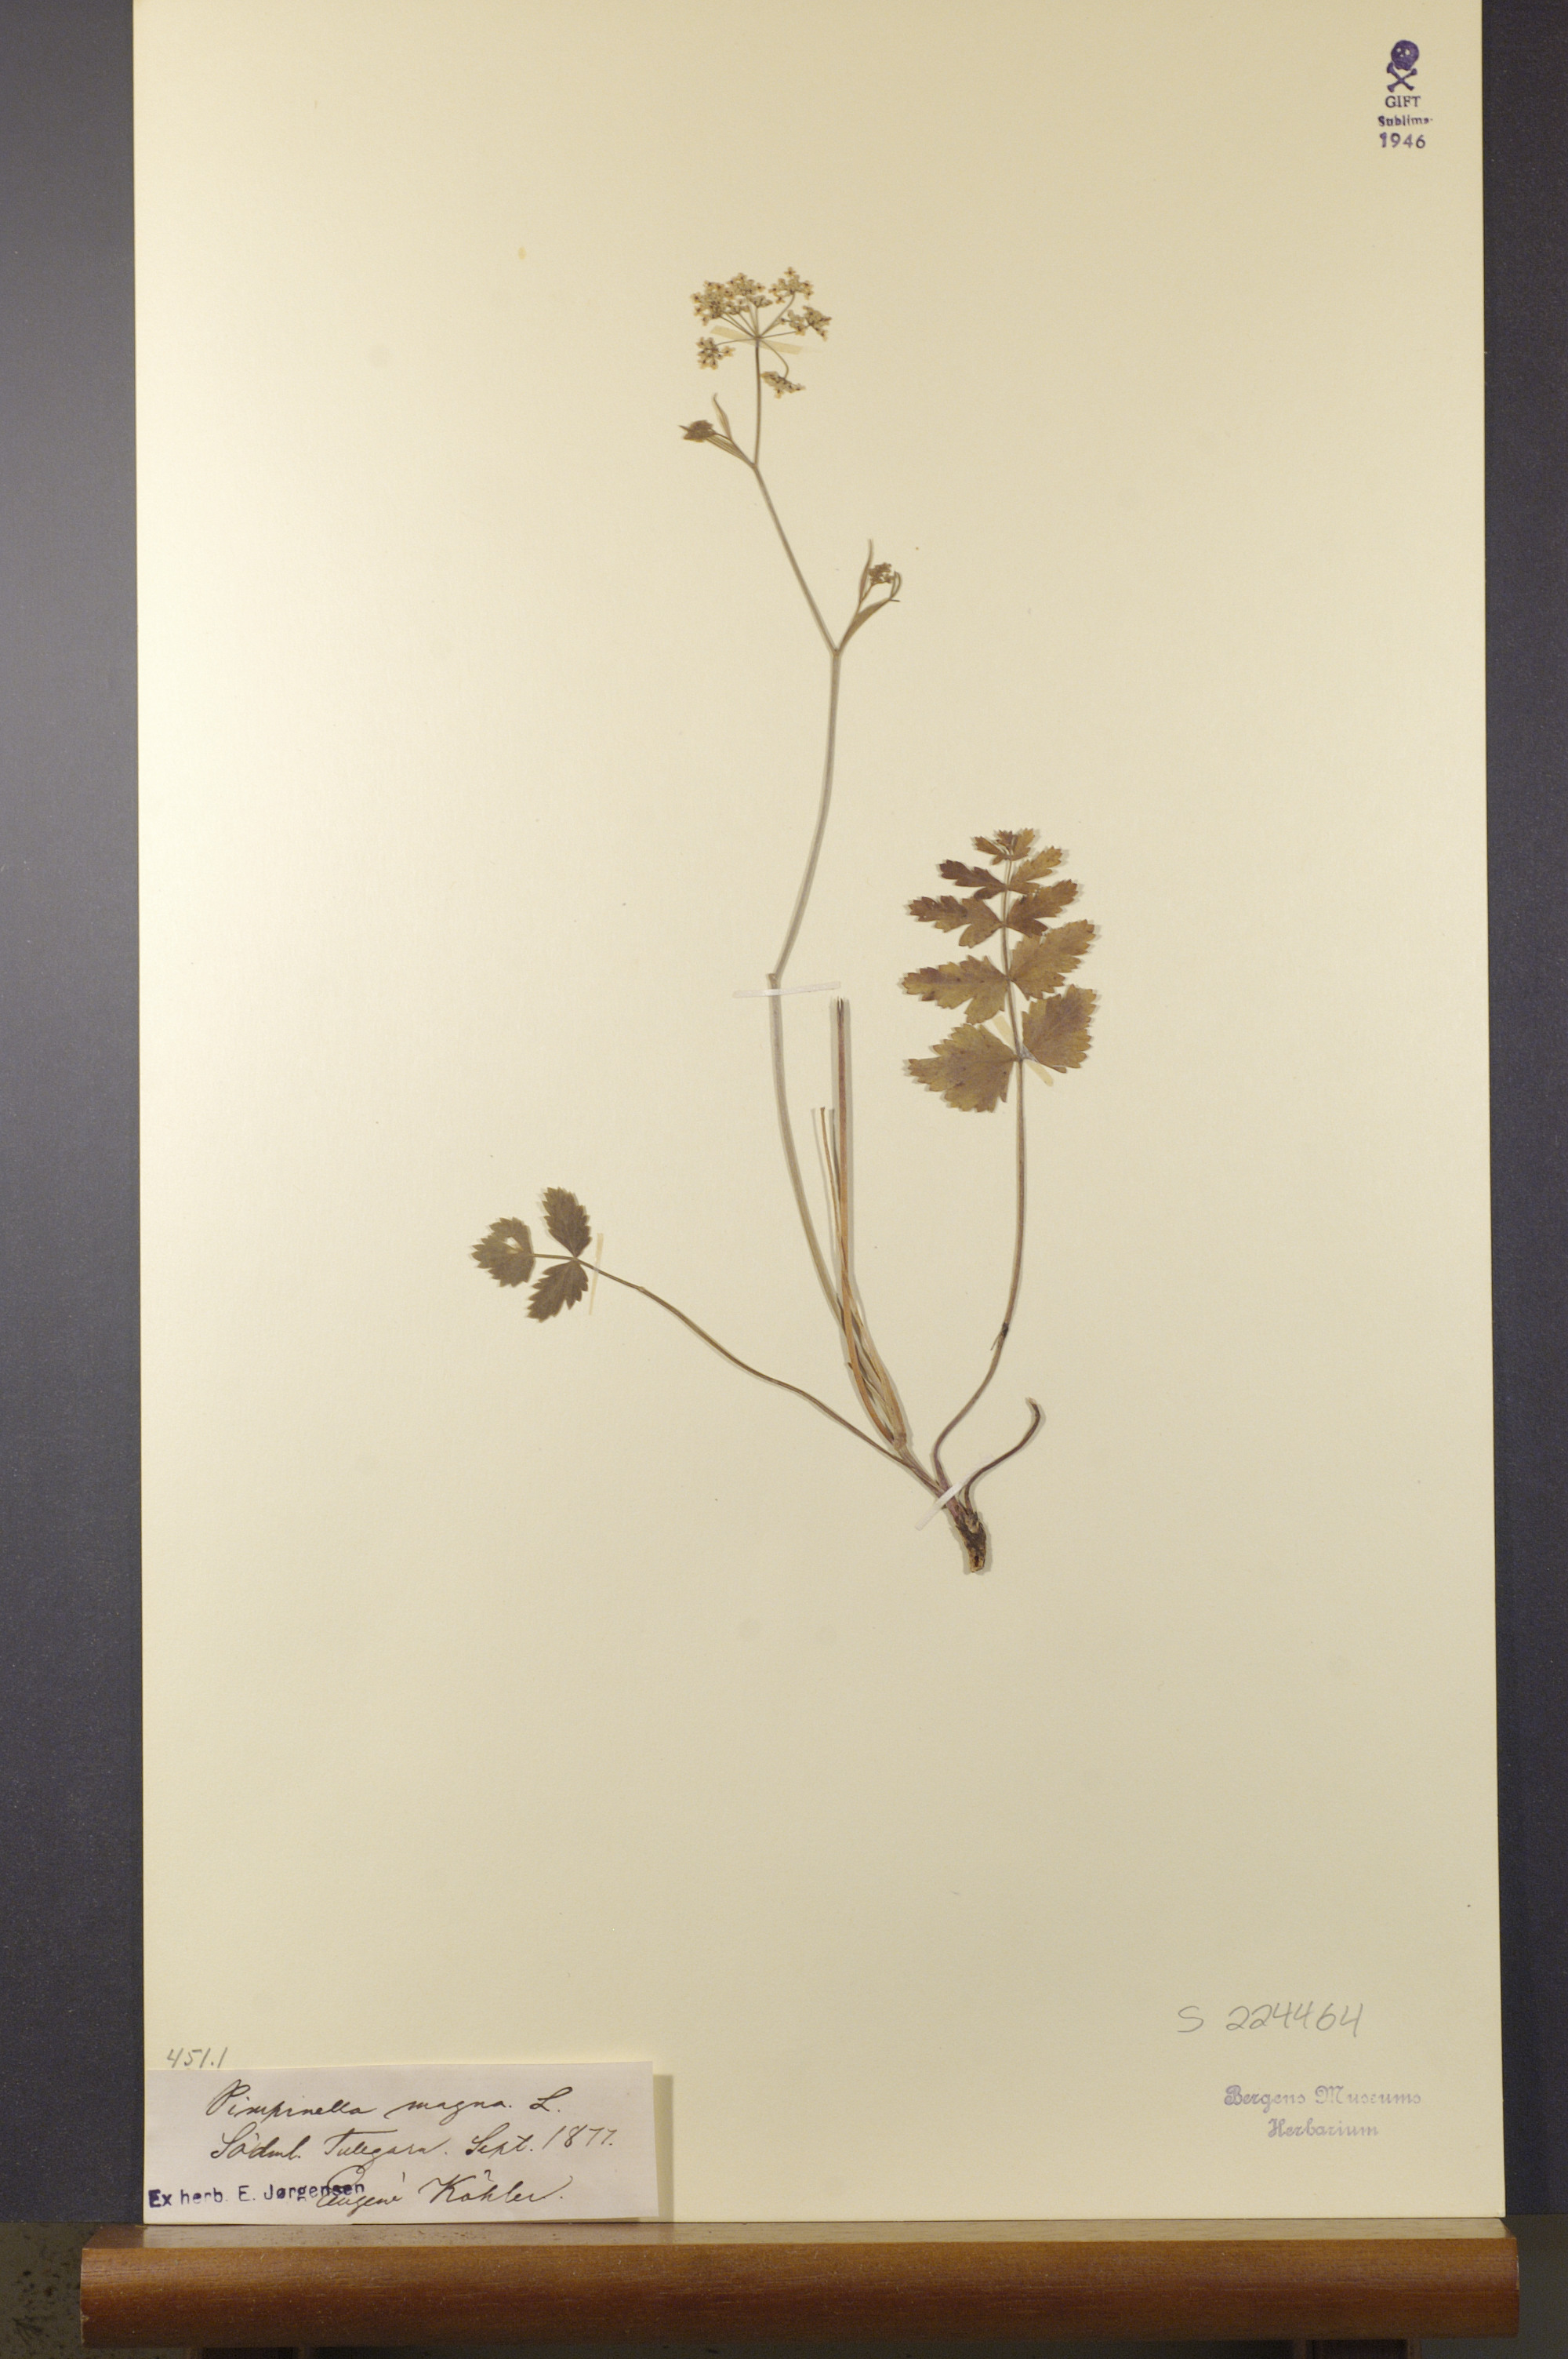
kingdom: Plantae
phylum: Tracheophyta
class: Magnoliopsida
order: Apiales
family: Apiaceae
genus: Pimpinella
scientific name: Pimpinella major
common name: Greater burnet-saxifrage
